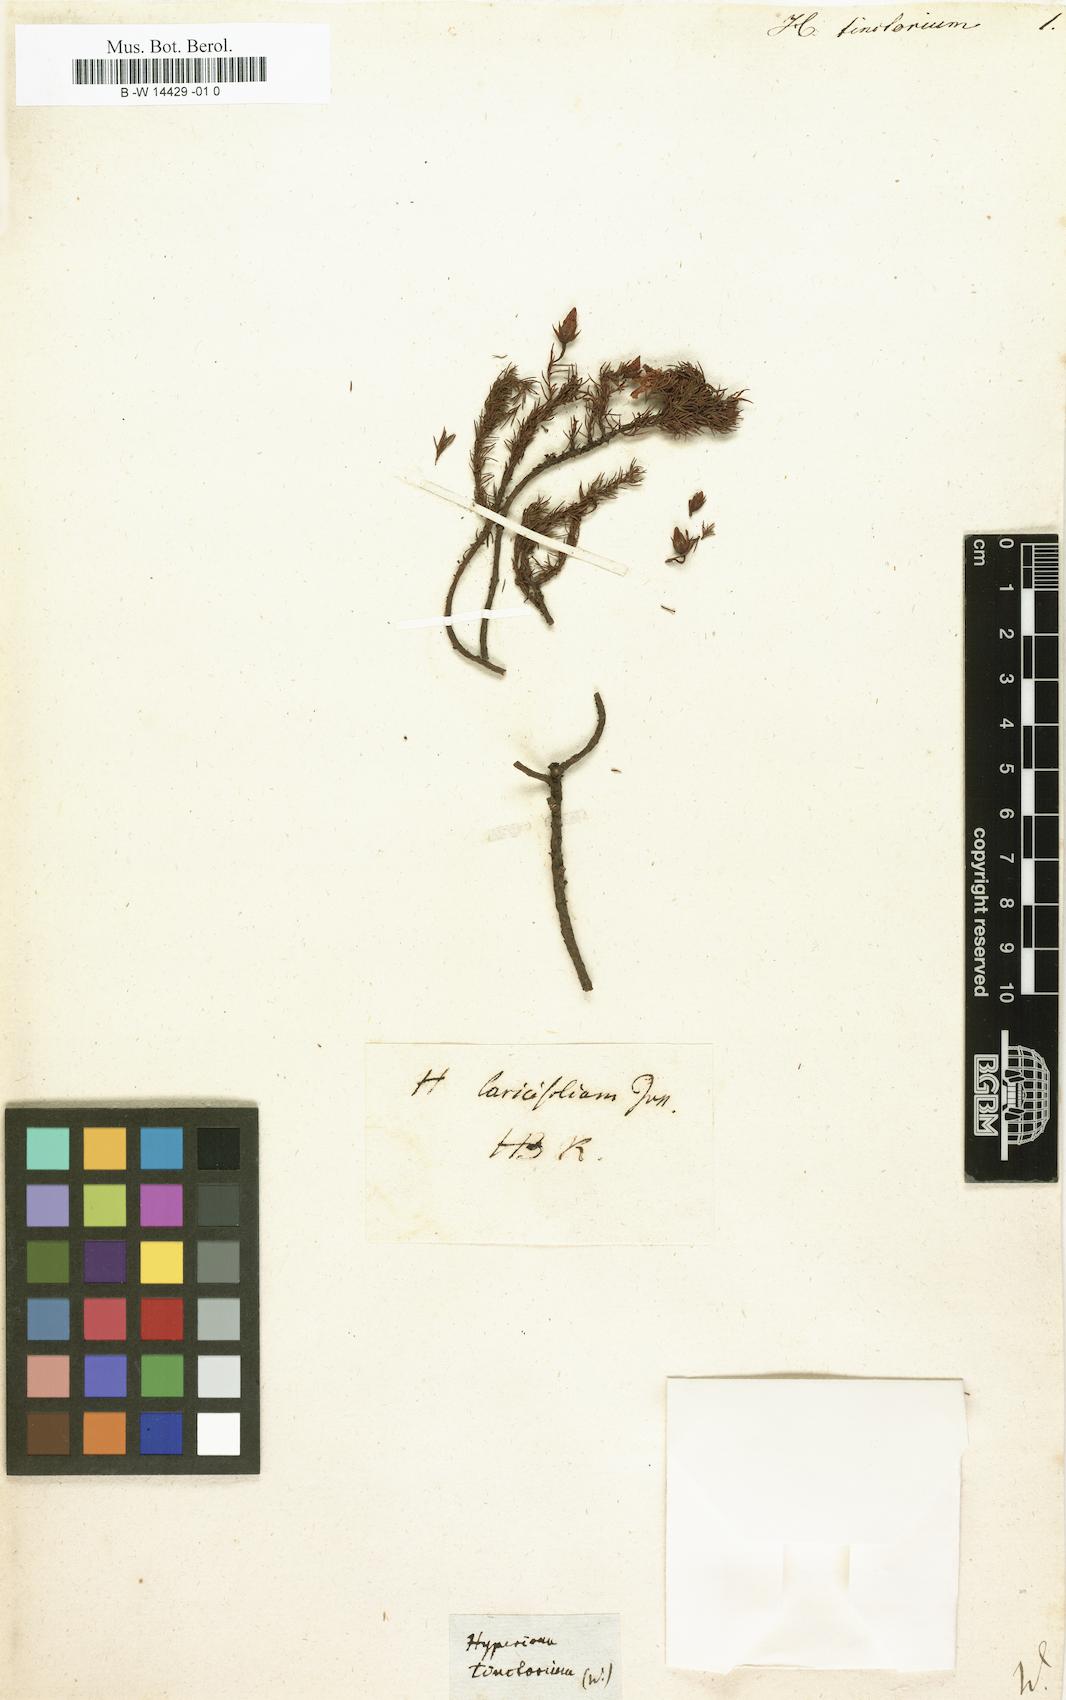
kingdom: Plantae
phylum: Tracheophyta
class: Magnoliopsida
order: Malpighiales
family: Hypericaceae
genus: Hypericum
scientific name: Hypericum laricifolium
